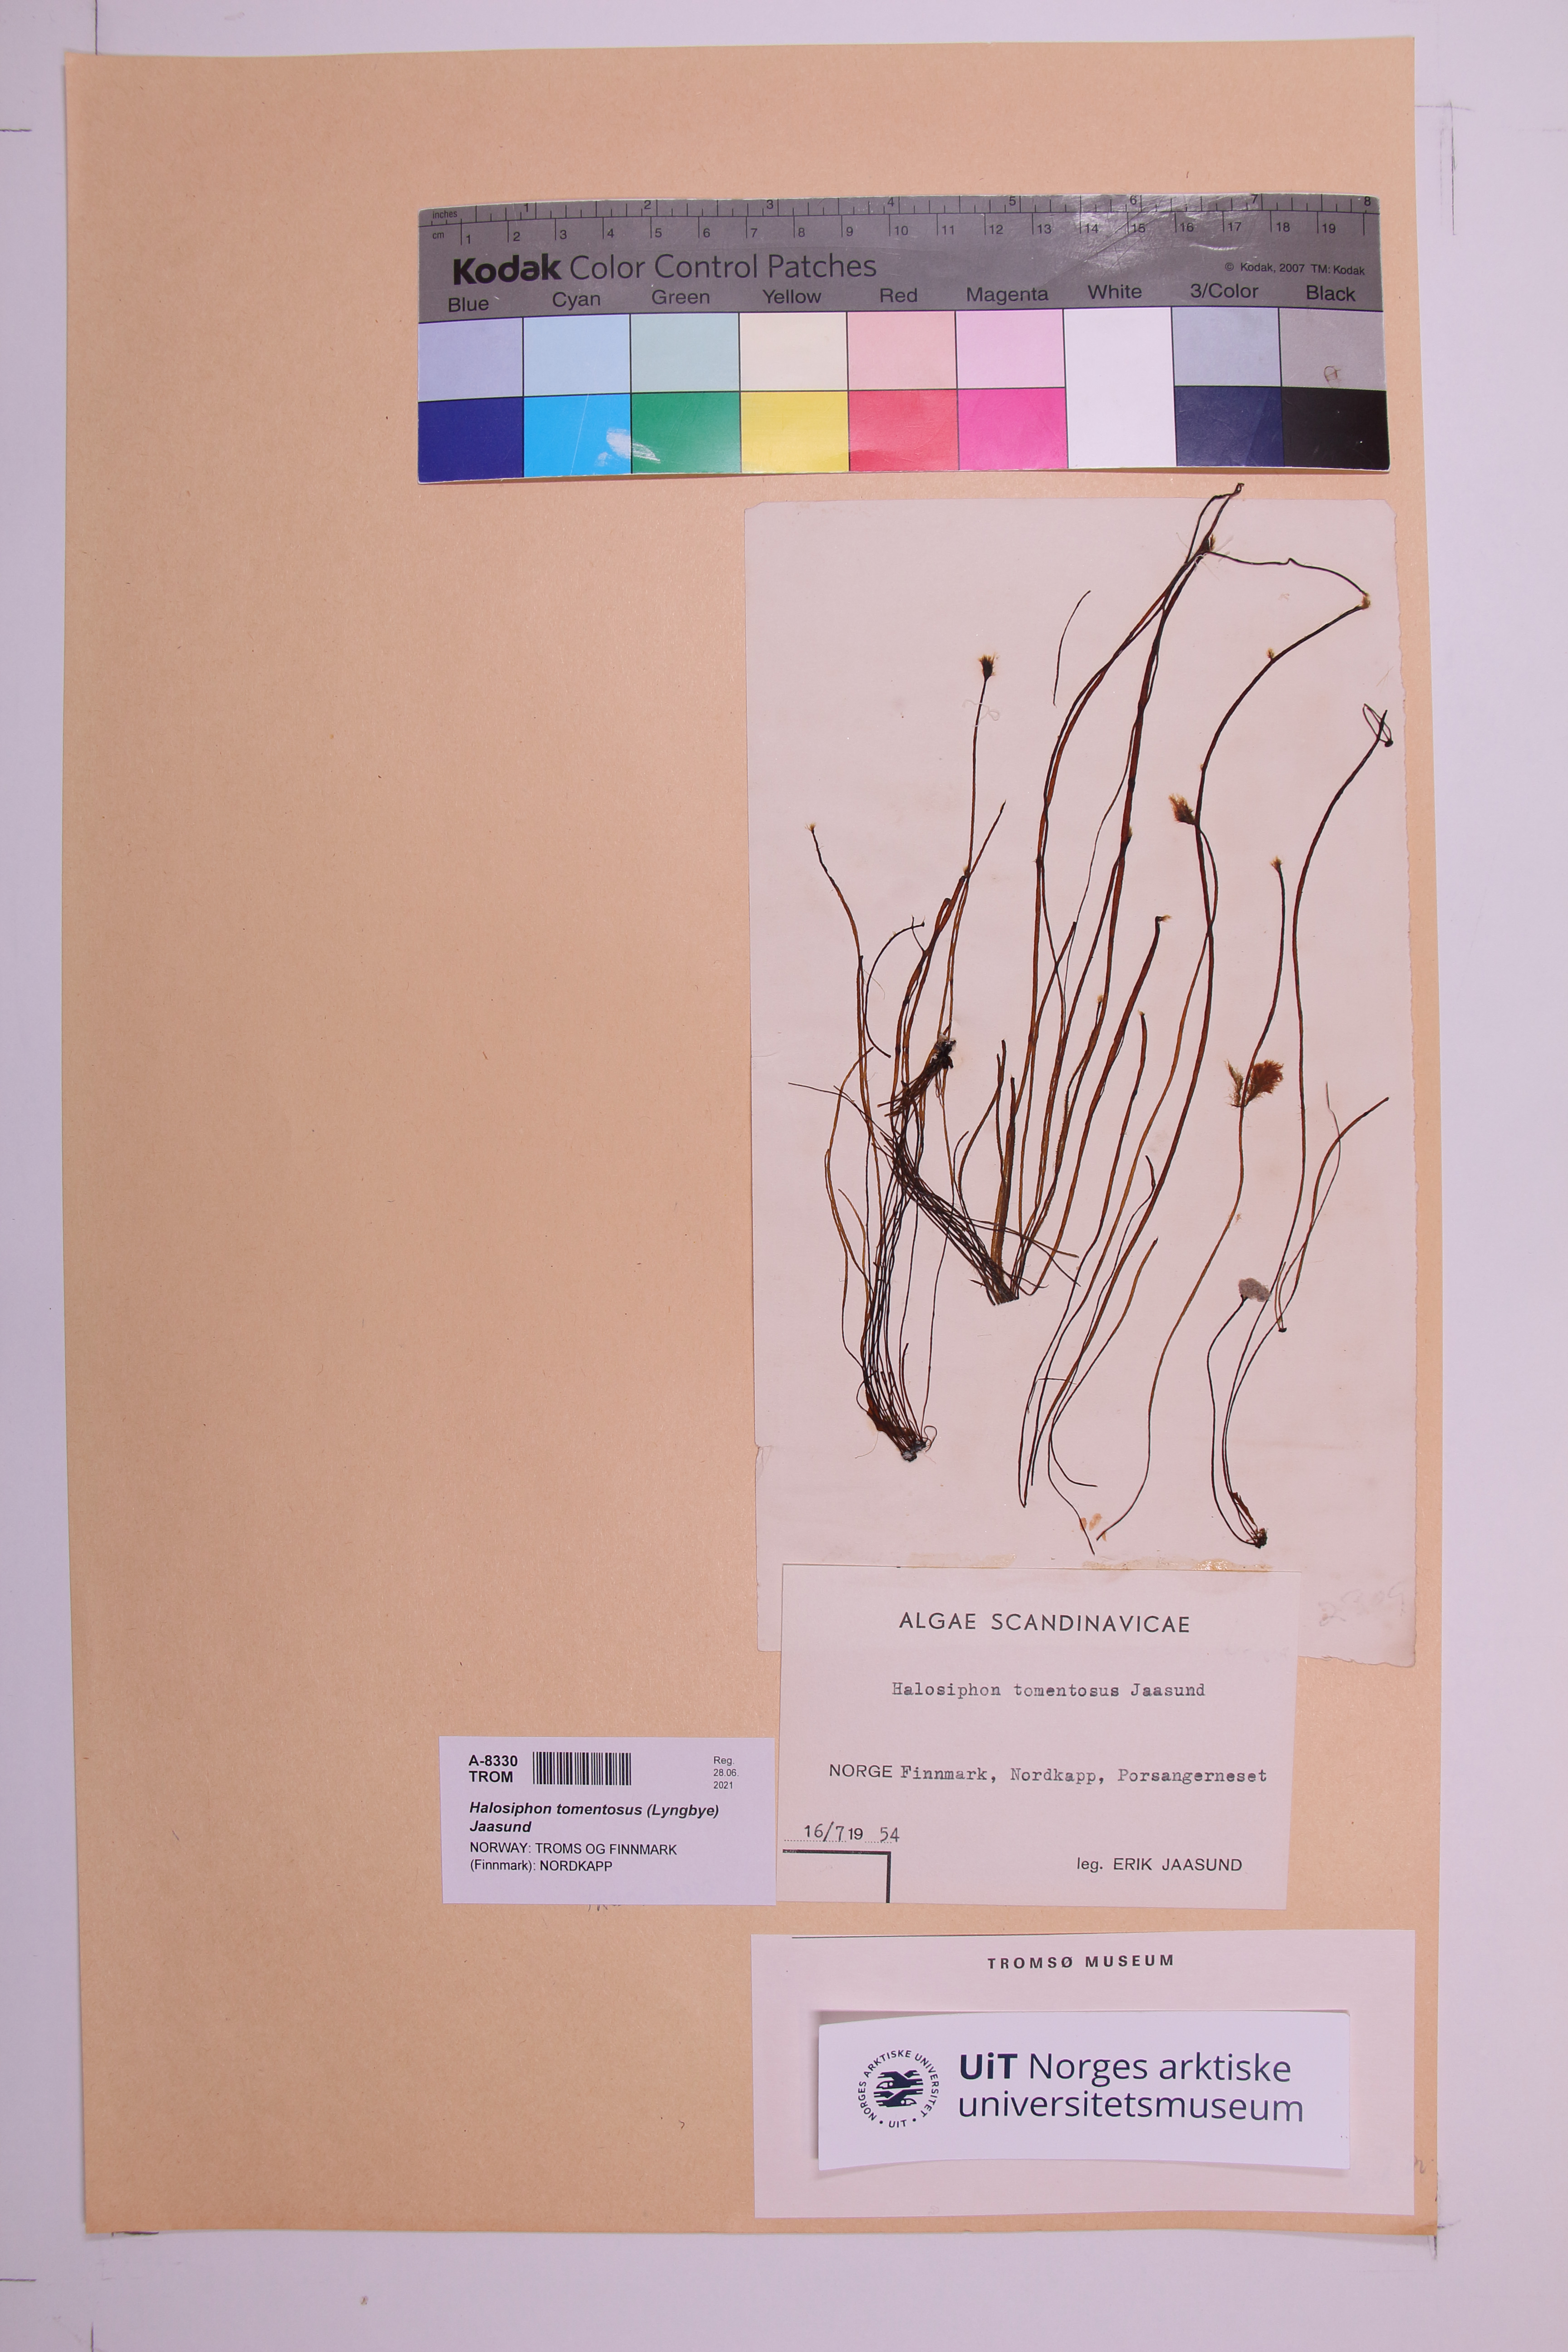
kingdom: Chromista
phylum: Ochrophyta
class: Phaeophyceae
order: Tilopteridales
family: Halosiphonaceae
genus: Halosiphon
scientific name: Halosiphon tomentosus
